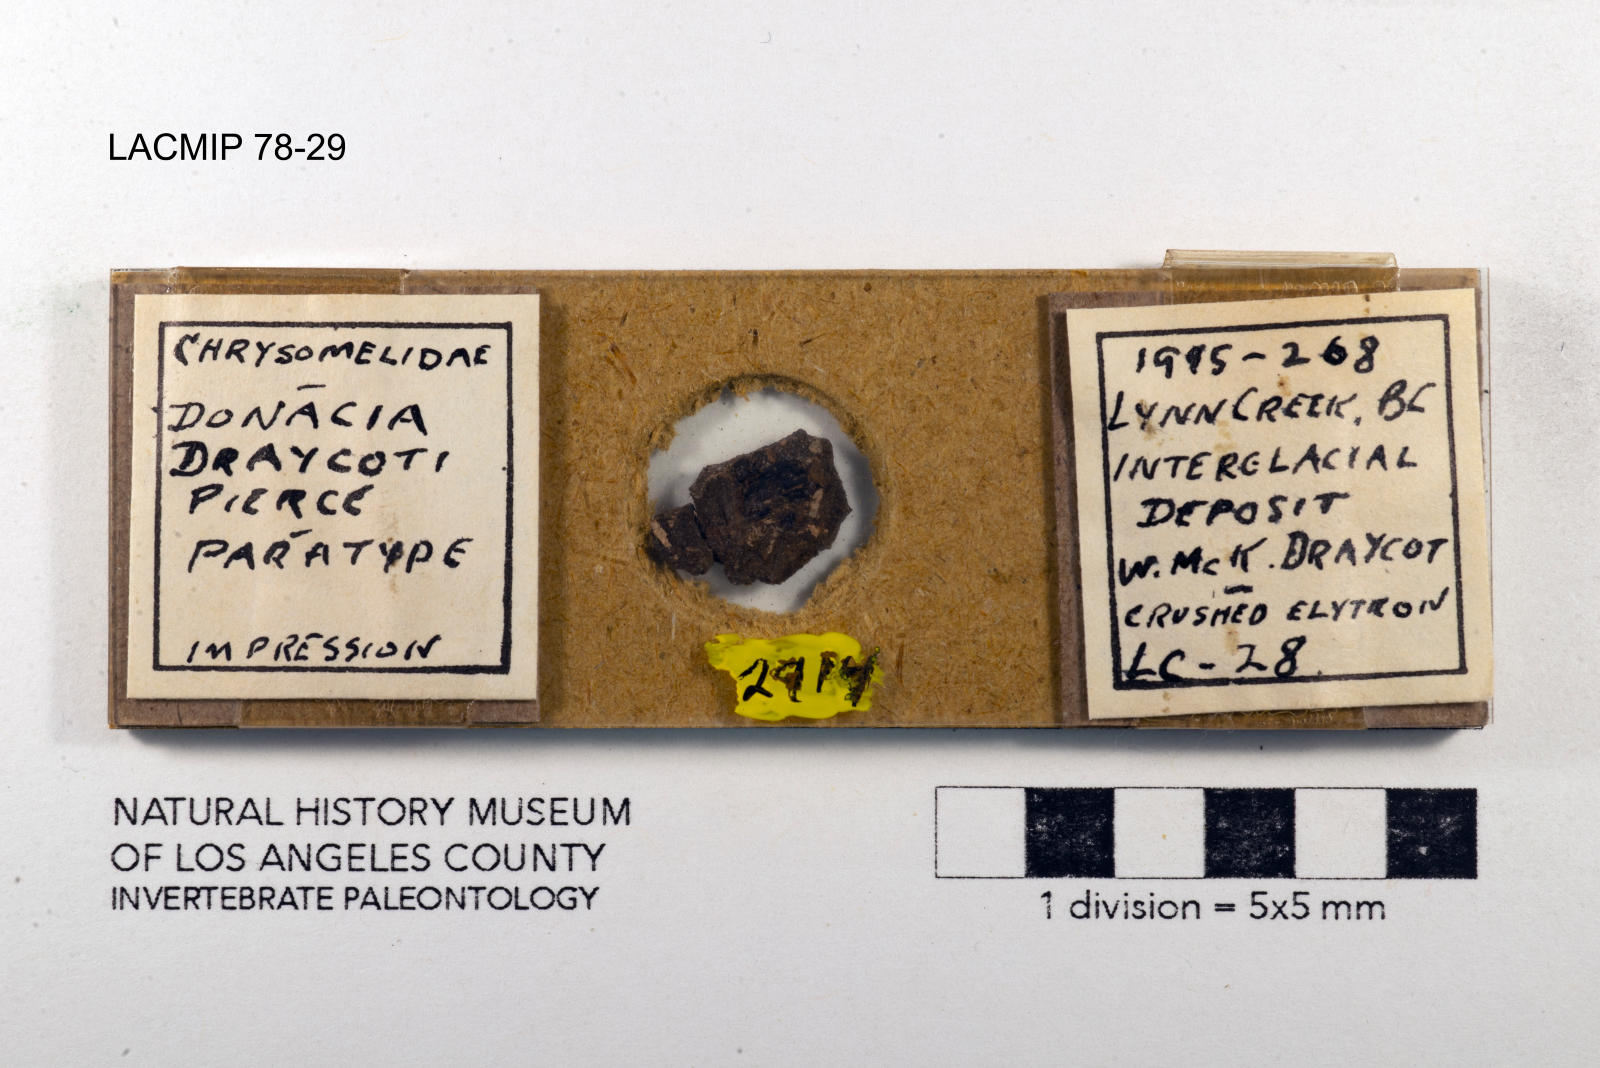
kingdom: Animalia
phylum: Arthropoda
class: Insecta
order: Coleoptera
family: Chrysomelidae
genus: Donacia
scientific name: Donacia draycoti
